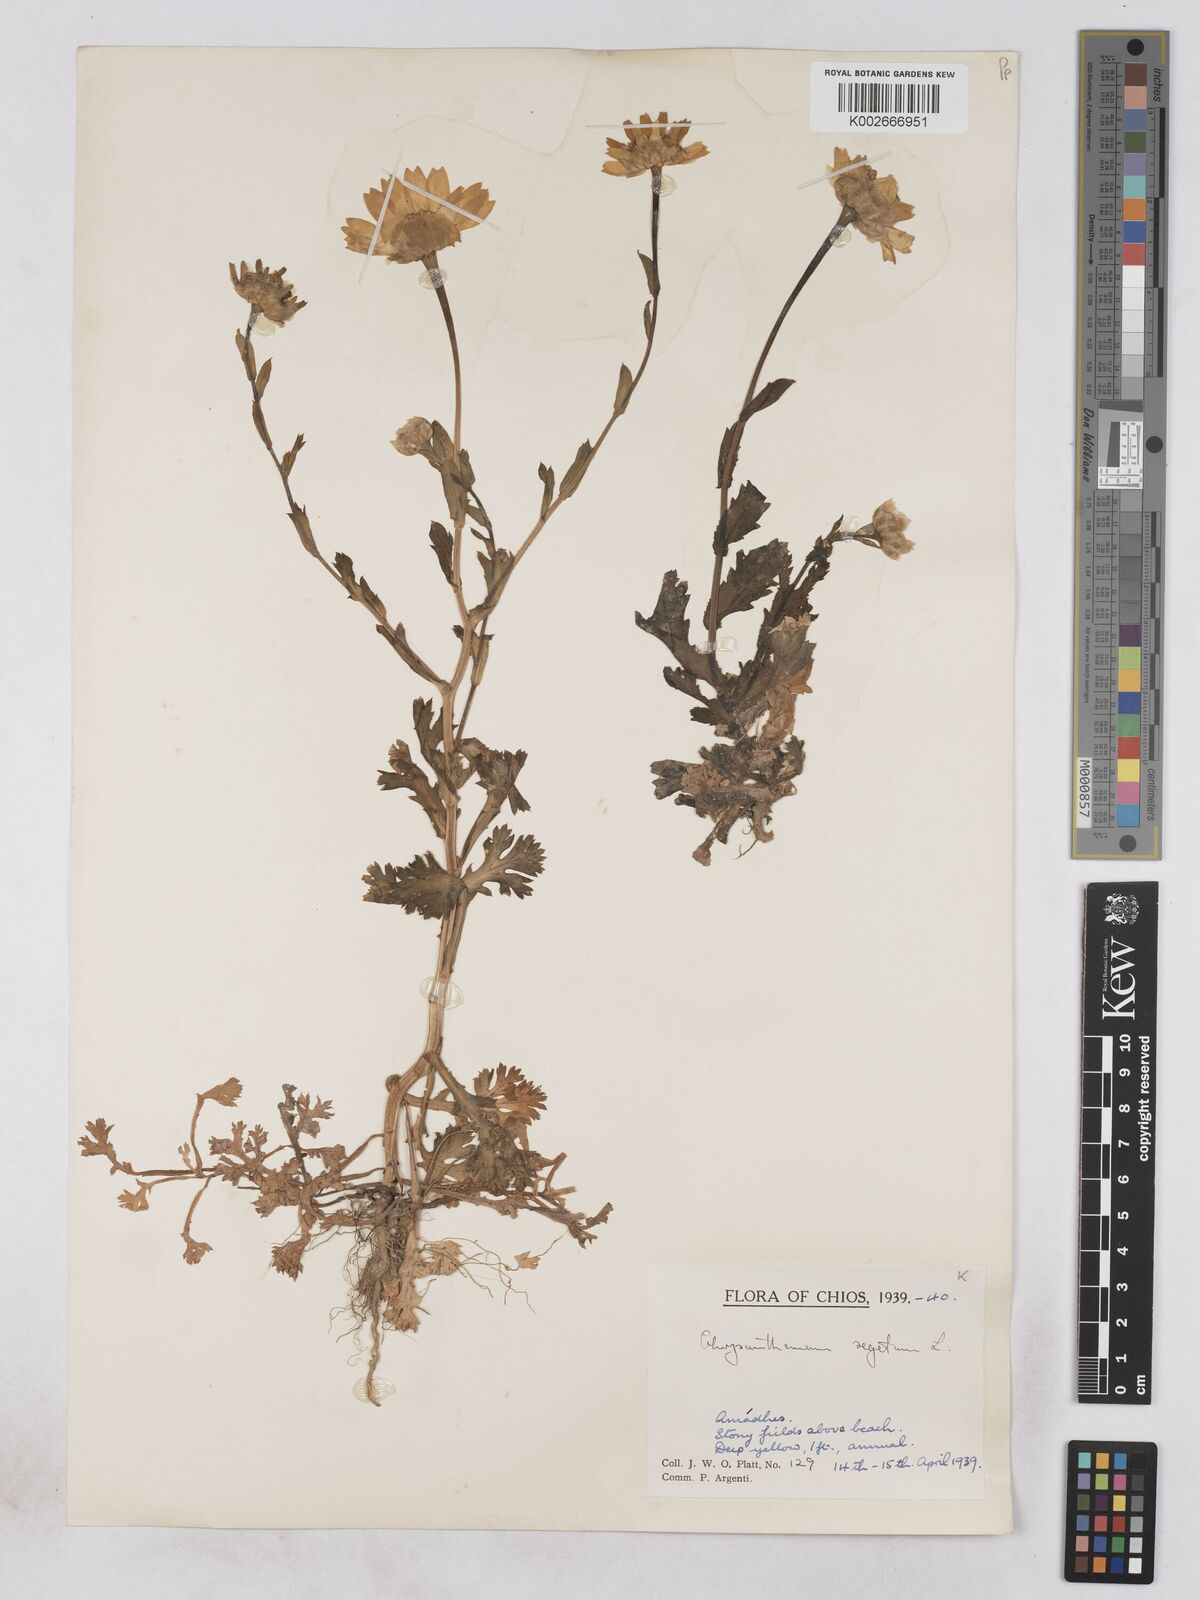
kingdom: Plantae
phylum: Tracheophyta
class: Magnoliopsida
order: Asterales
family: Asteraceae
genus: Glebionis
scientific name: Glebionis segetum
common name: Corndaisy
